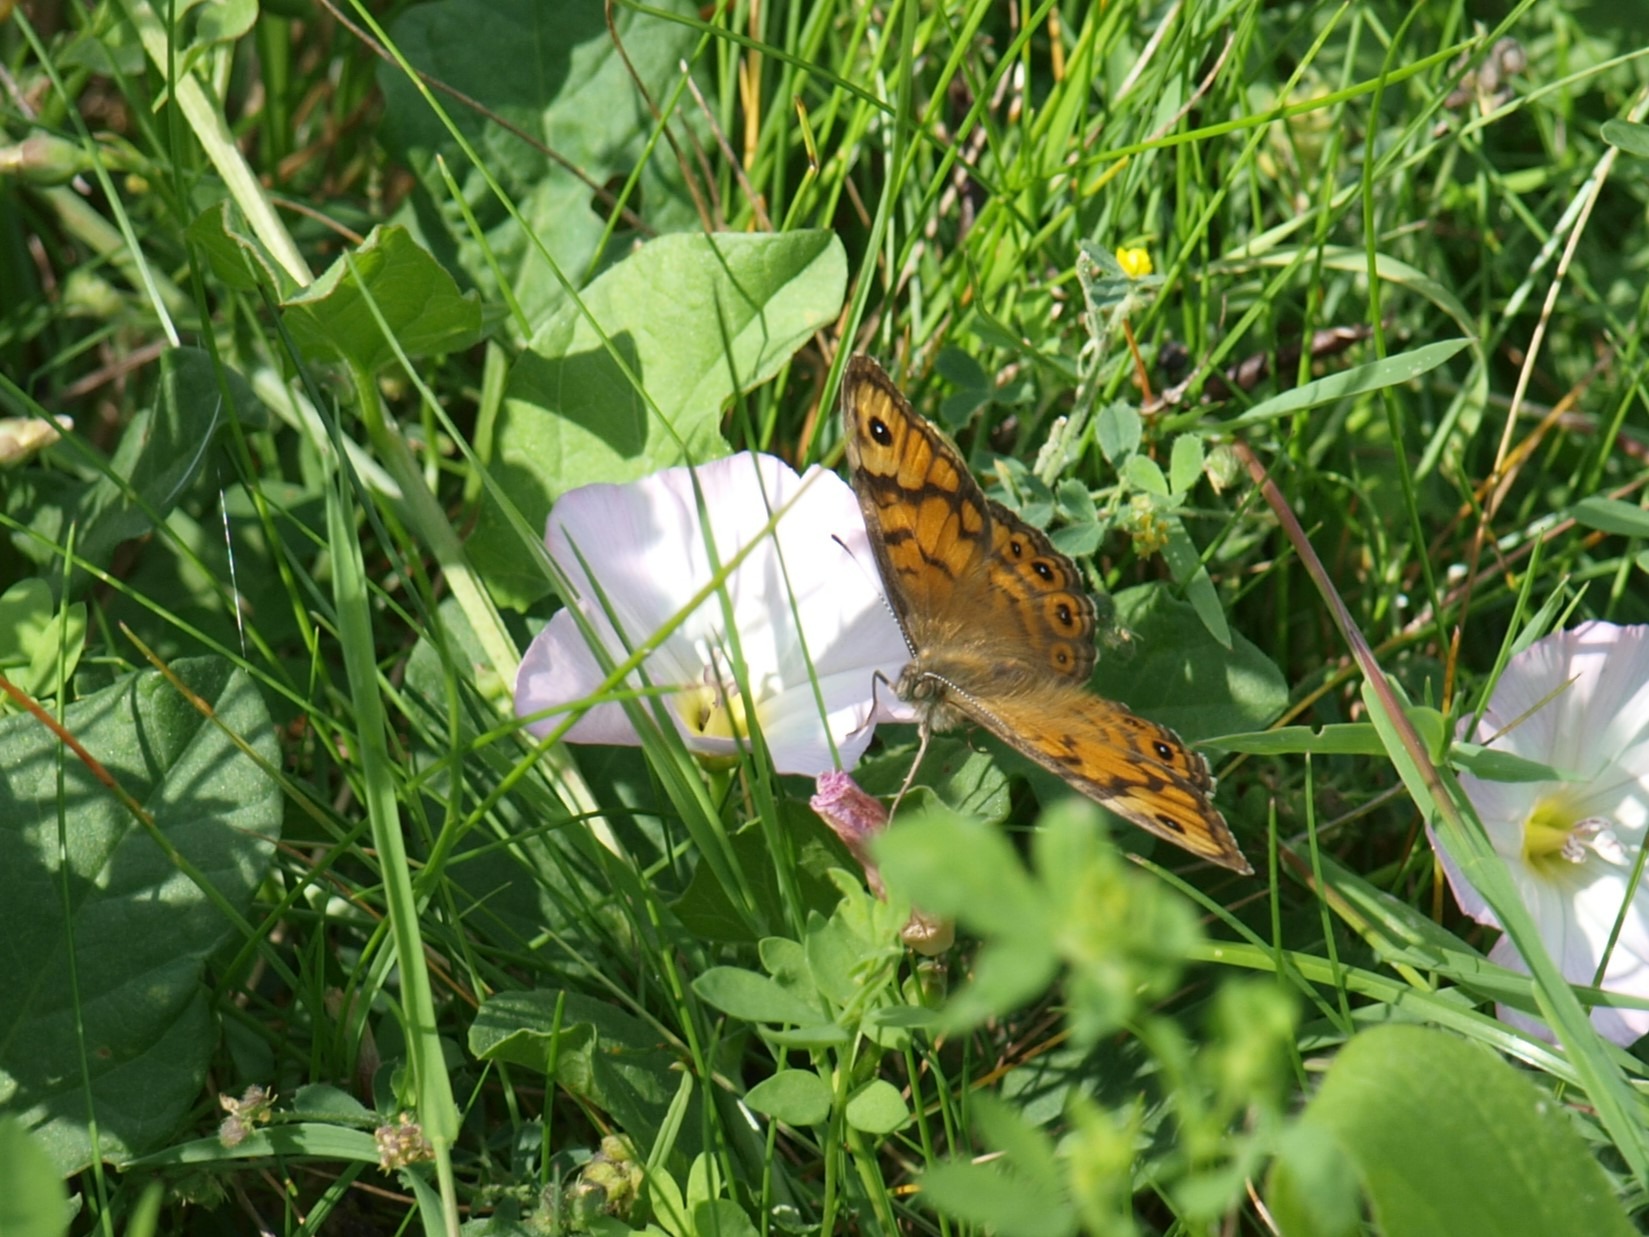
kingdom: Animalia
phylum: Arthropoda
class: Insecta
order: Lepidoptera
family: Nymphalidae
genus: Pararge
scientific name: Pararge Lasiommata megera
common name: Vejrandøje
